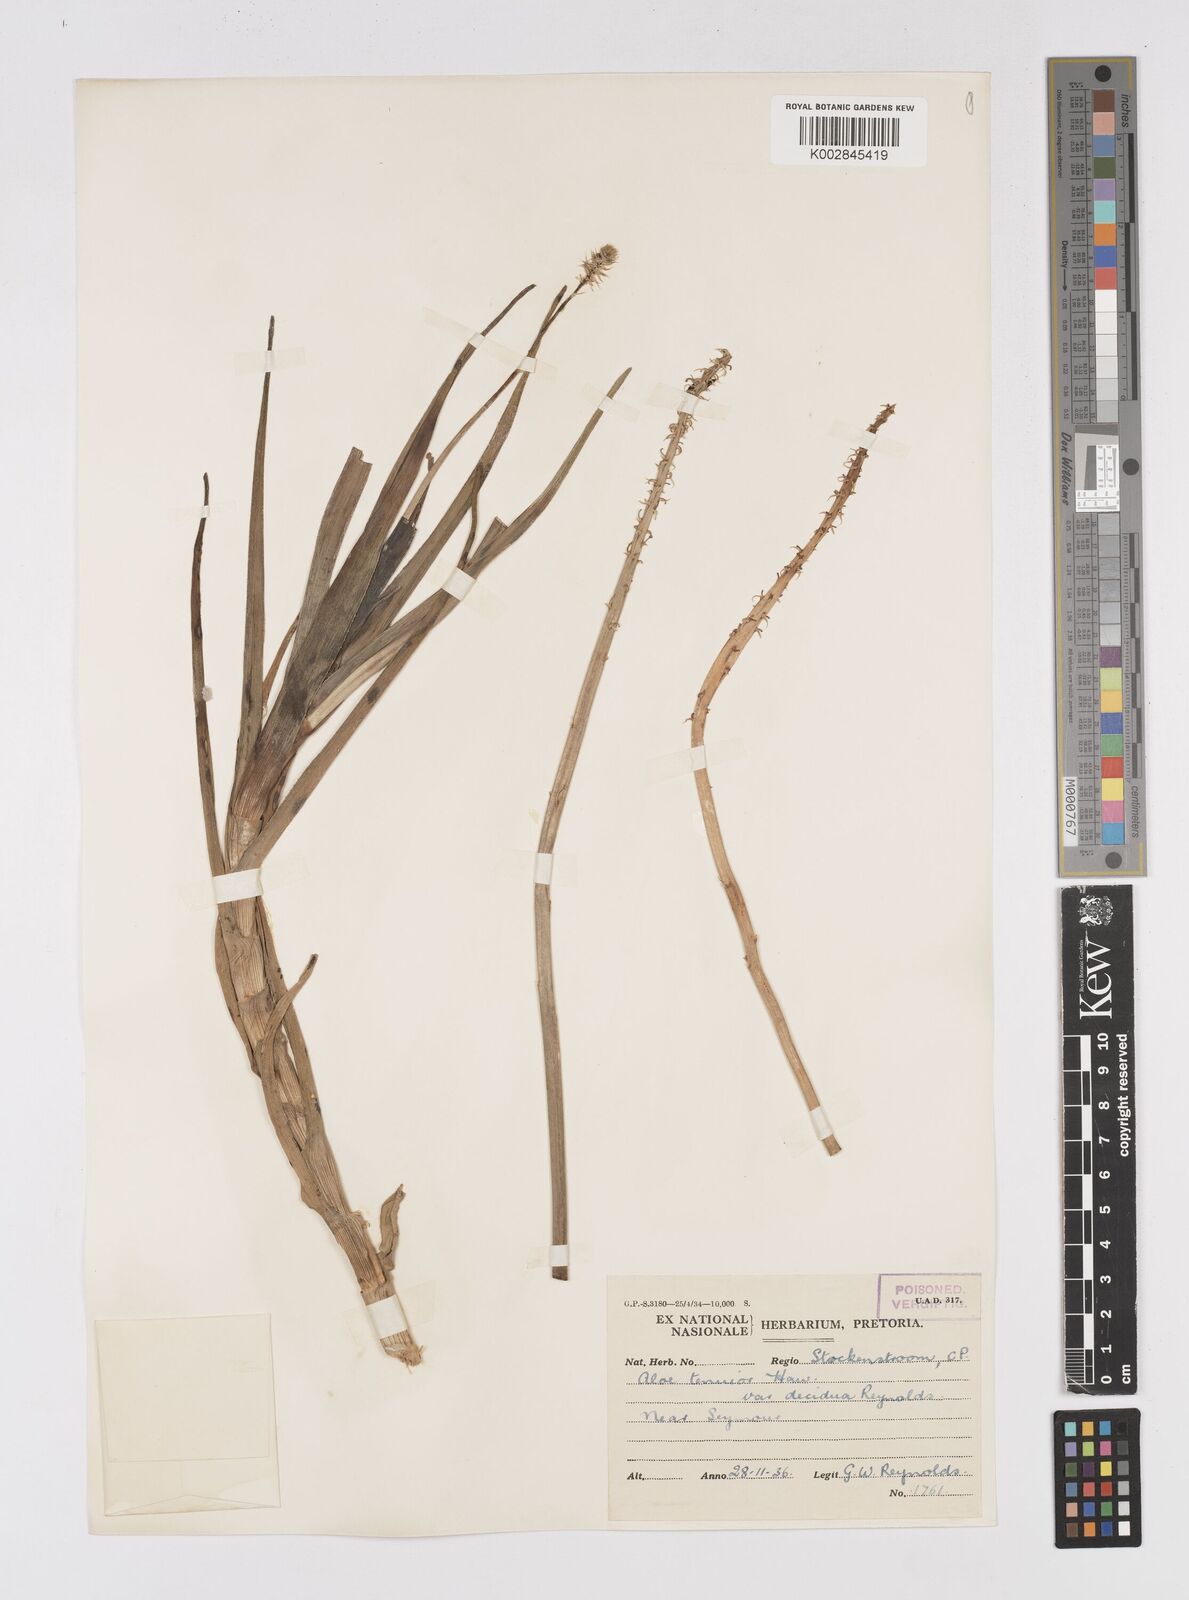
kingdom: Plantae
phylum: Tracheophyta
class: Liliopsida
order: Asparagales
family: Asphodelaceae
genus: Aloiampelos
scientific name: Aloiampelos tenuior
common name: Fence aloe
